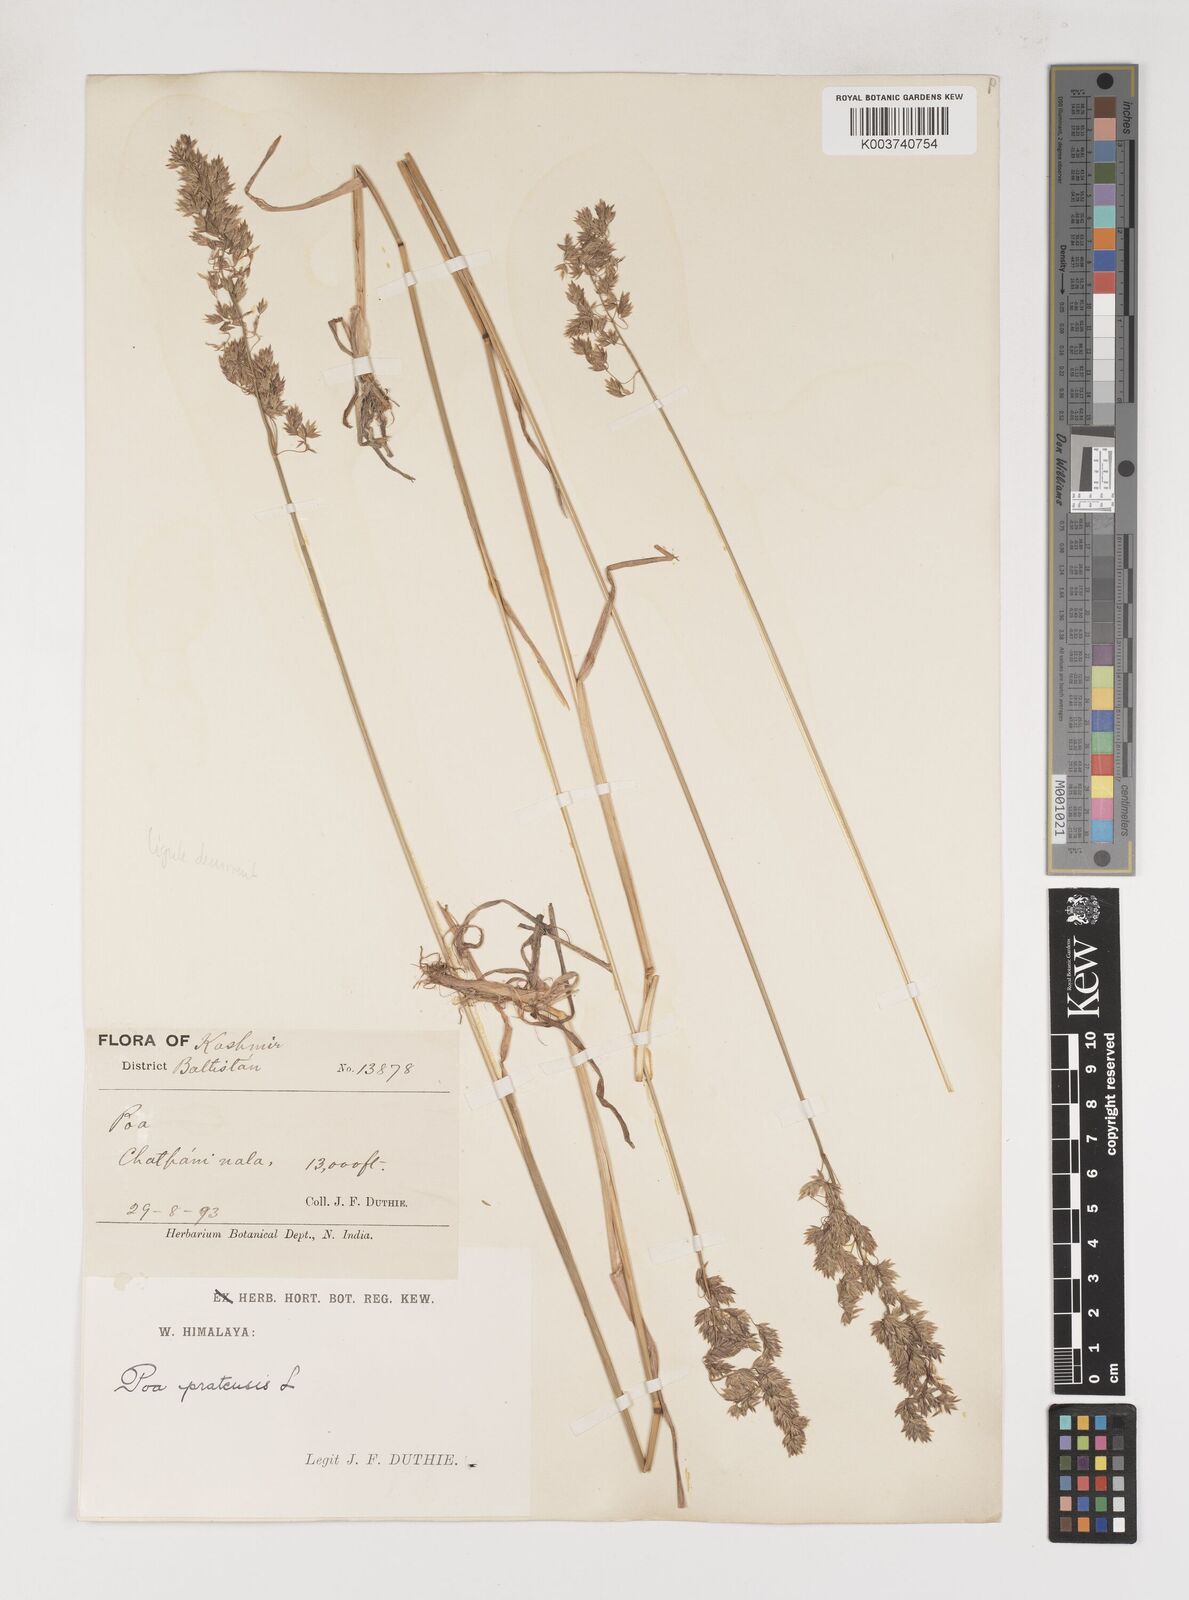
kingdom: Plantae
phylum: Tracheophyta
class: Liliopsida
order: Poales
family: Poaceae
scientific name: Poaceae
